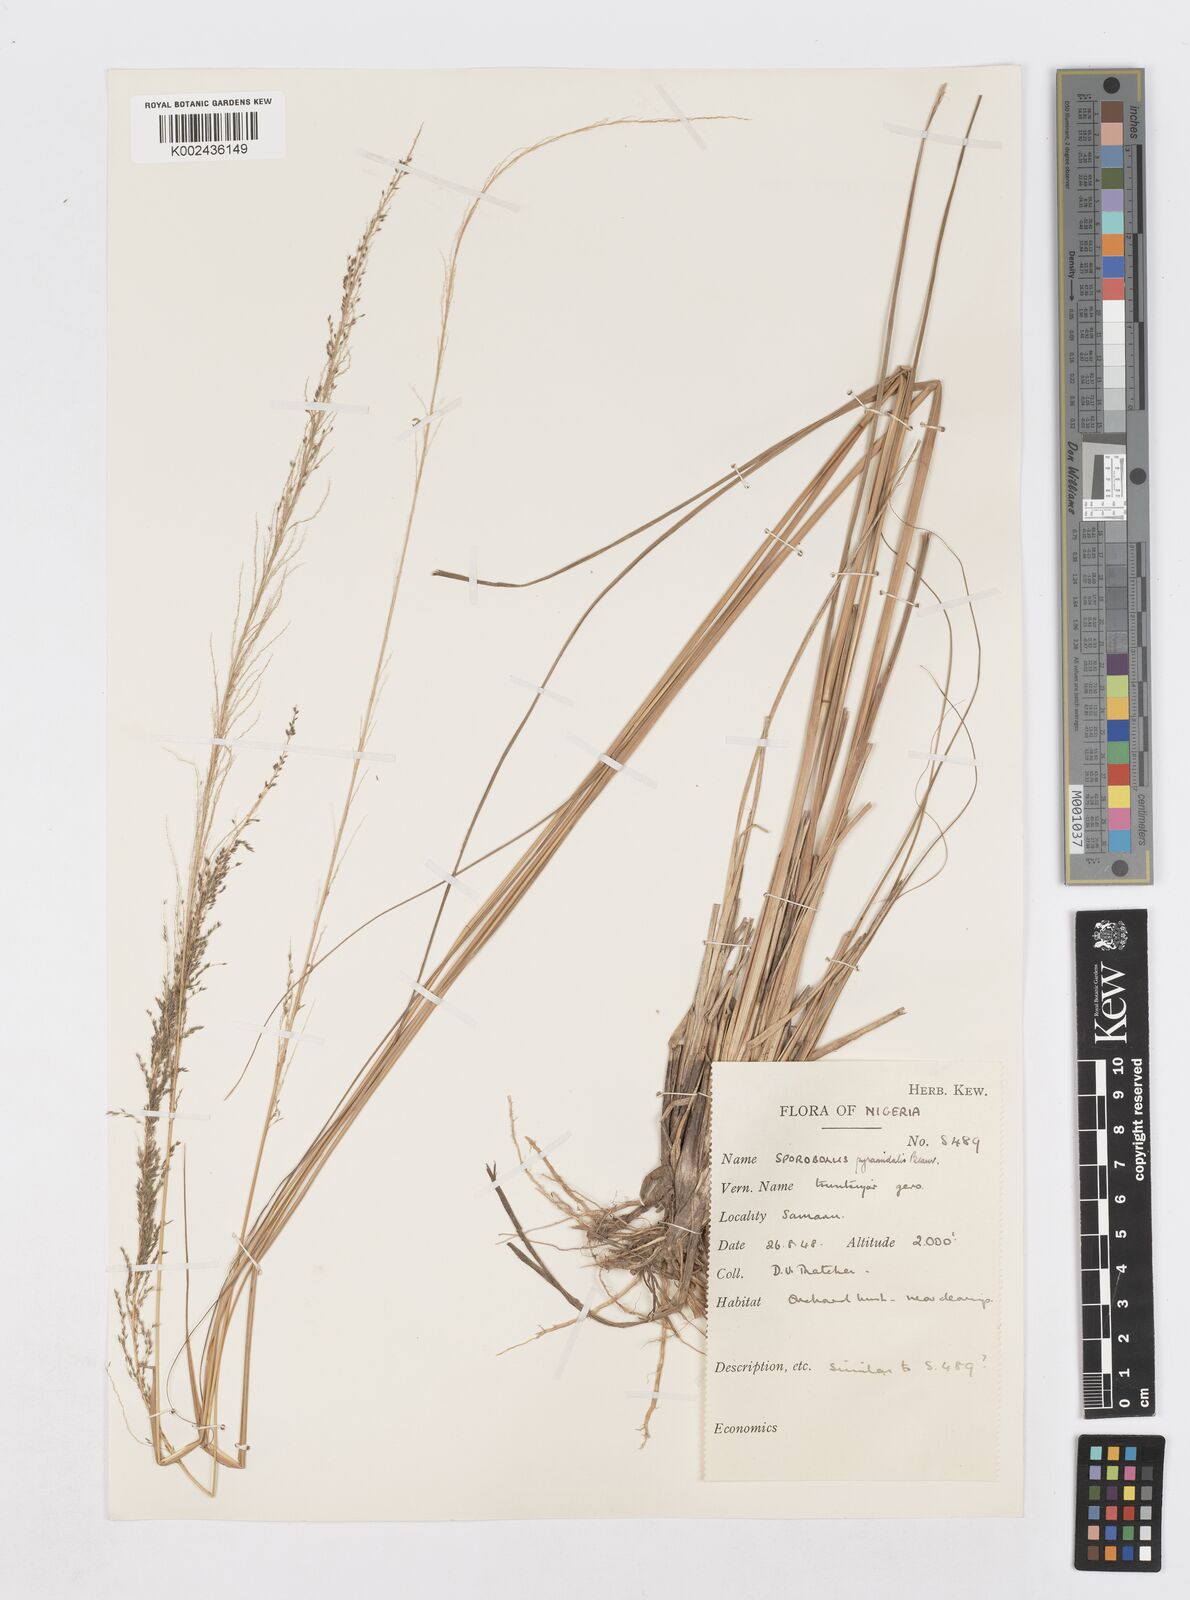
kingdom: Plantae
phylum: Tracheophyta
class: Liliopsida
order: Poales
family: Poaceae
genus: Sporobolus
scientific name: Sporobolus pyramidalis
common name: West indian dropseed
